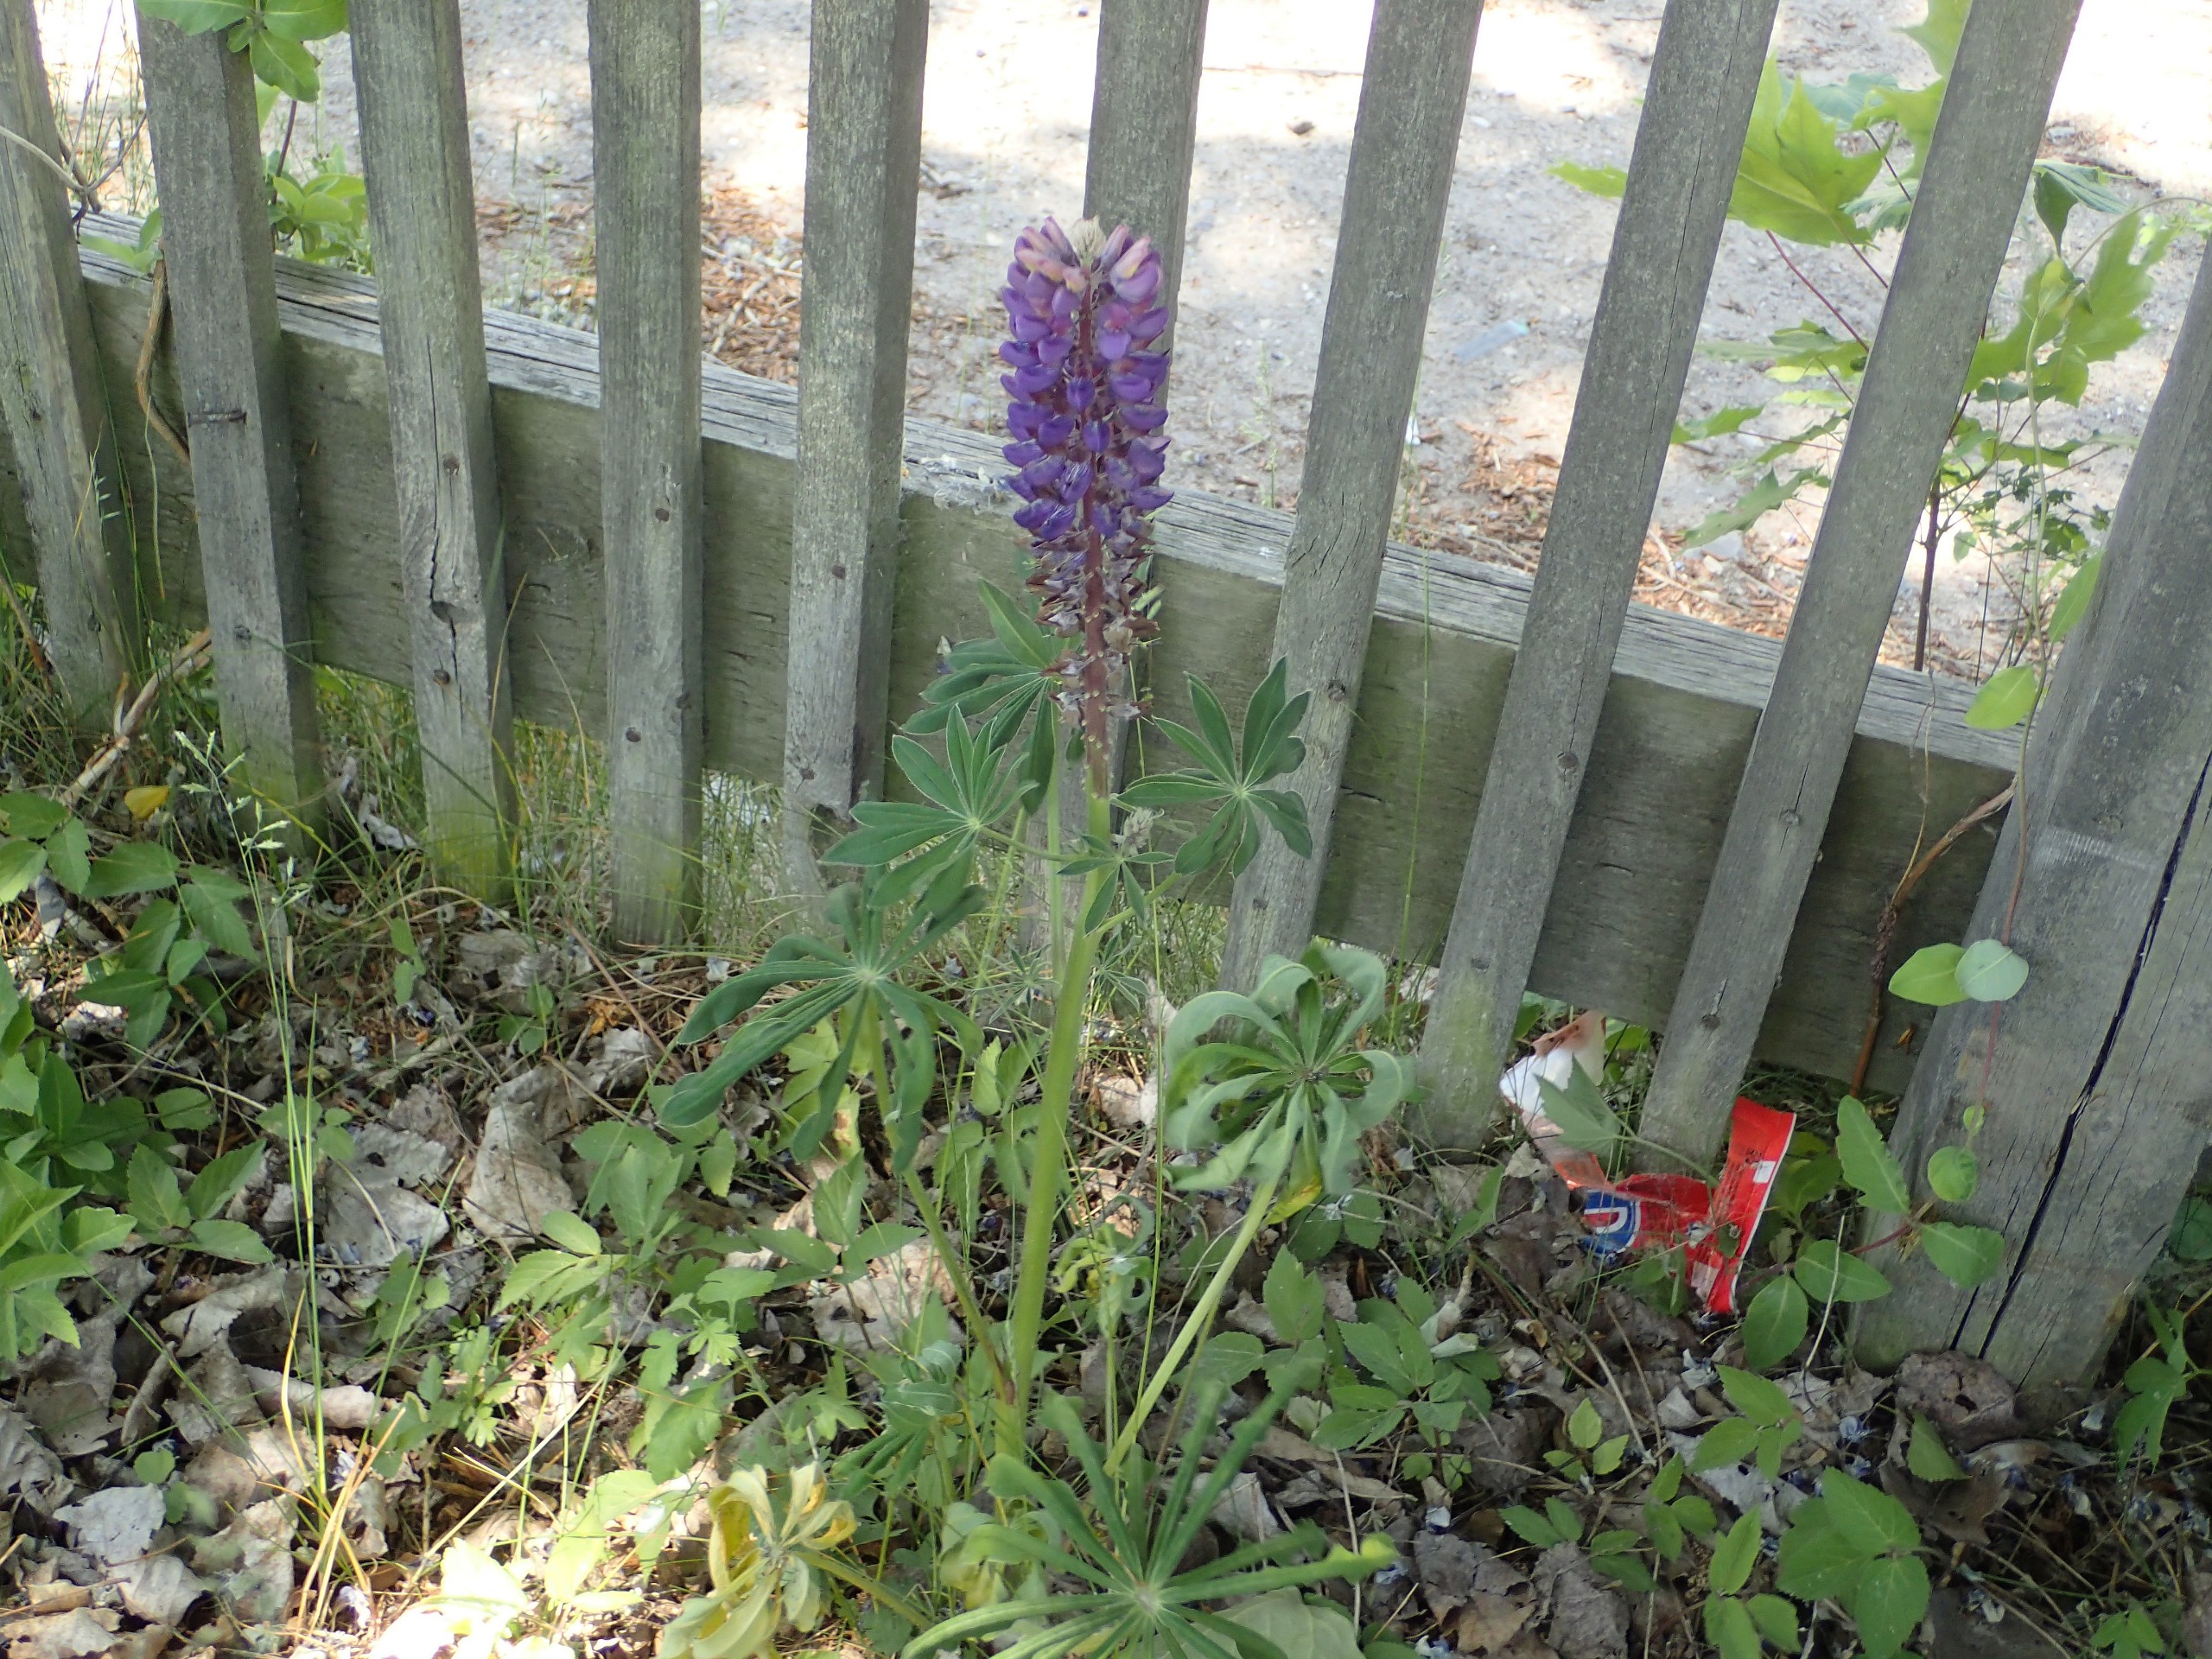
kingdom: Plantae
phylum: Tracheophyta
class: Magnoliopsida
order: Fabales
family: Fabaceae
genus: Lupinus
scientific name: Lupinus polyphyllus
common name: Mangebladet lupin
